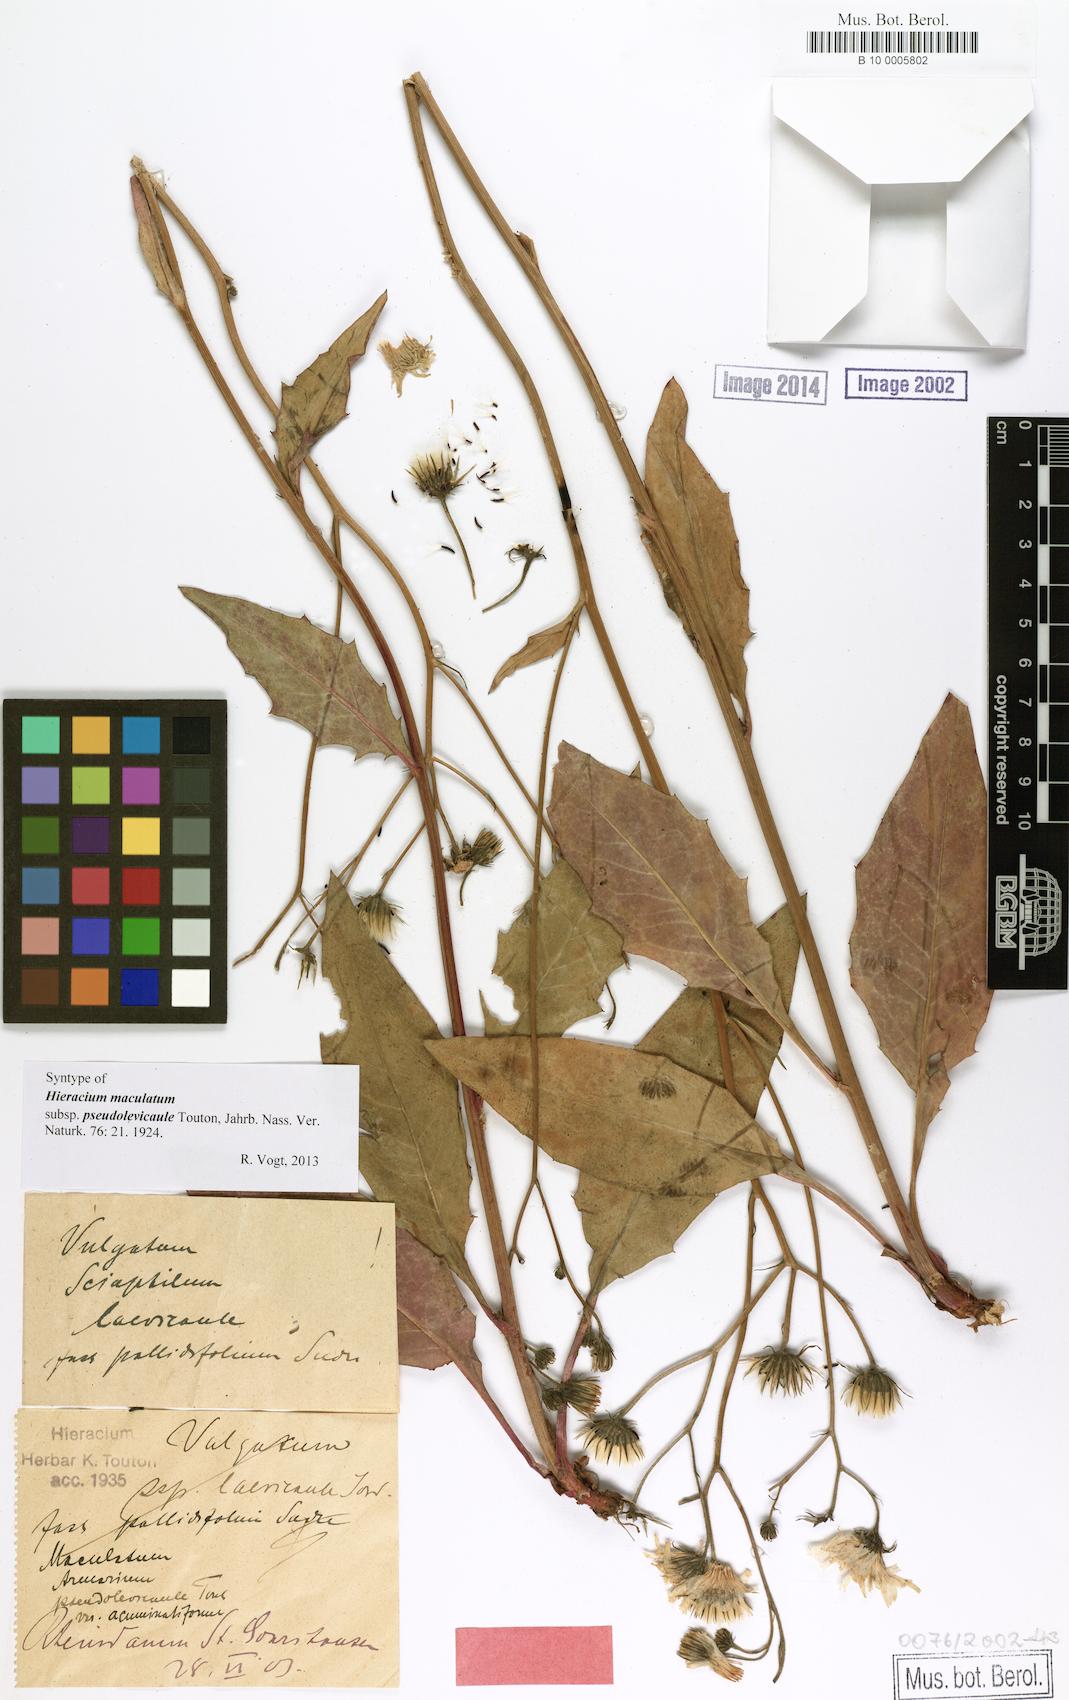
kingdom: Plantae
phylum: Tracheophyta
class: Magnoliopsida
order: Asterales
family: Asteraceae
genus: Hieracium
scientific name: Hieracium maculatum
